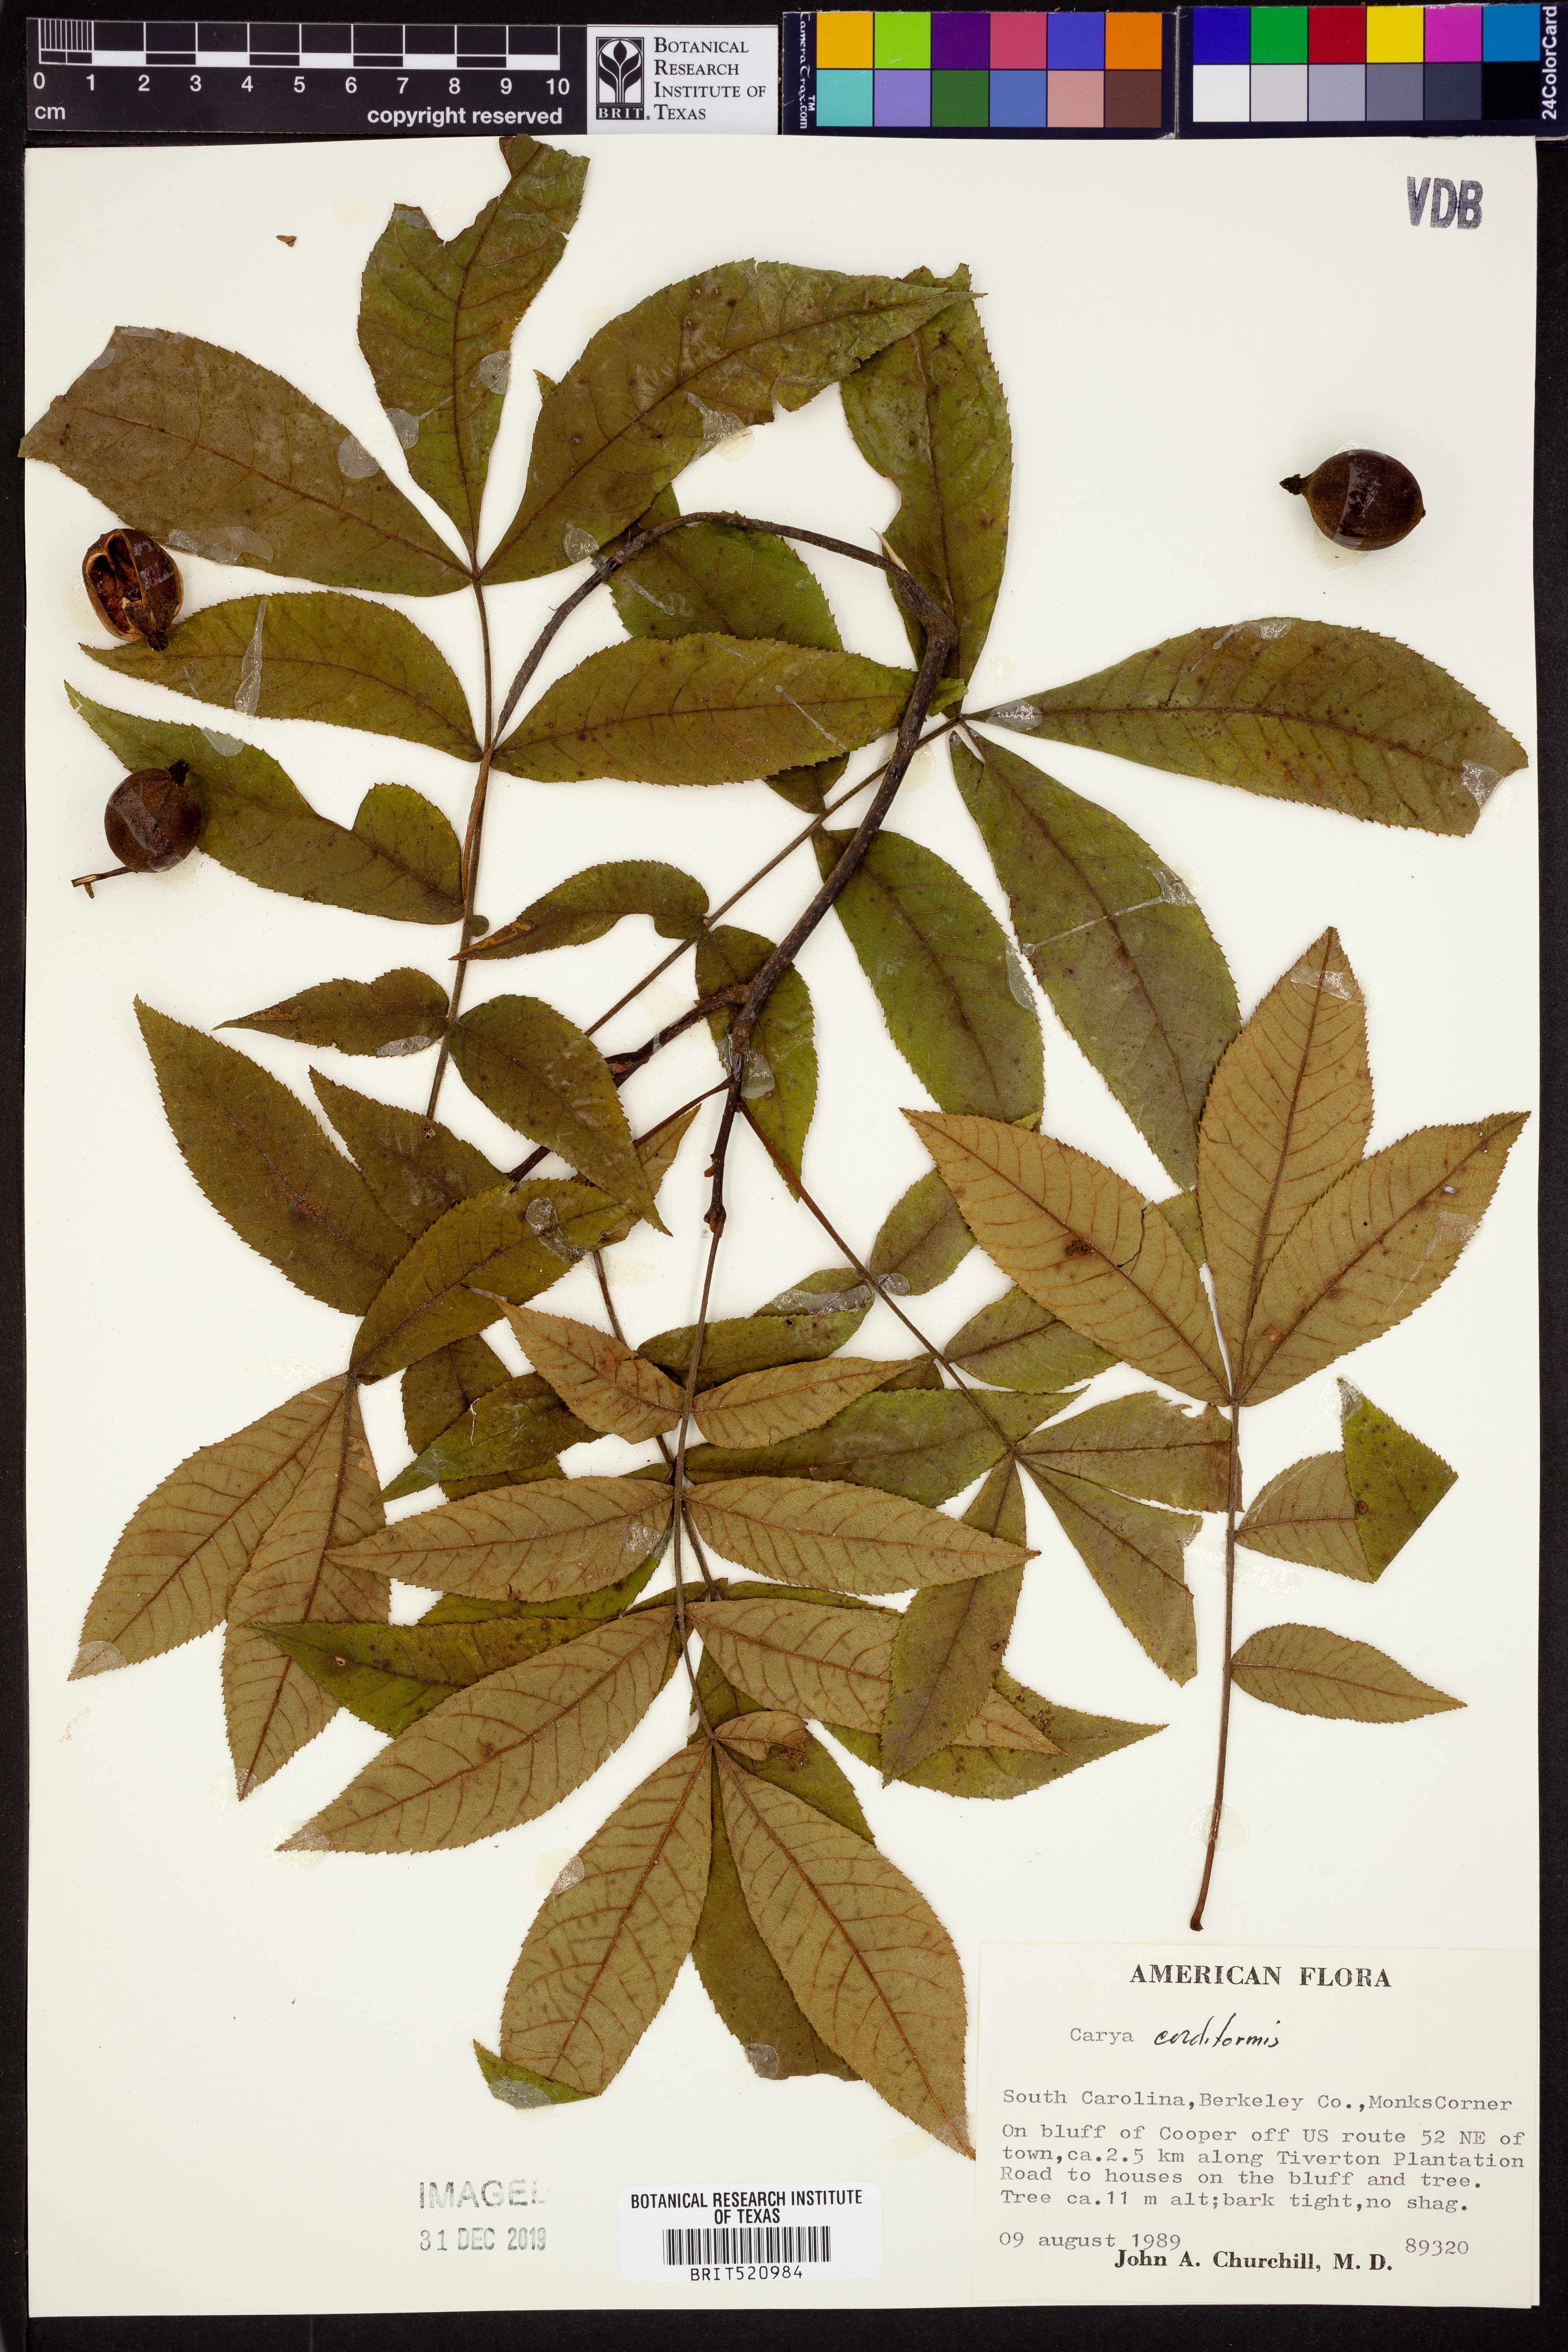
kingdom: Plantae
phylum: Tracheophyta
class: Magnoliopsida
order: Fagales
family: Juglandaceae
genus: Carya
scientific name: Carya cordiformis
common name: Bitternut hickory
